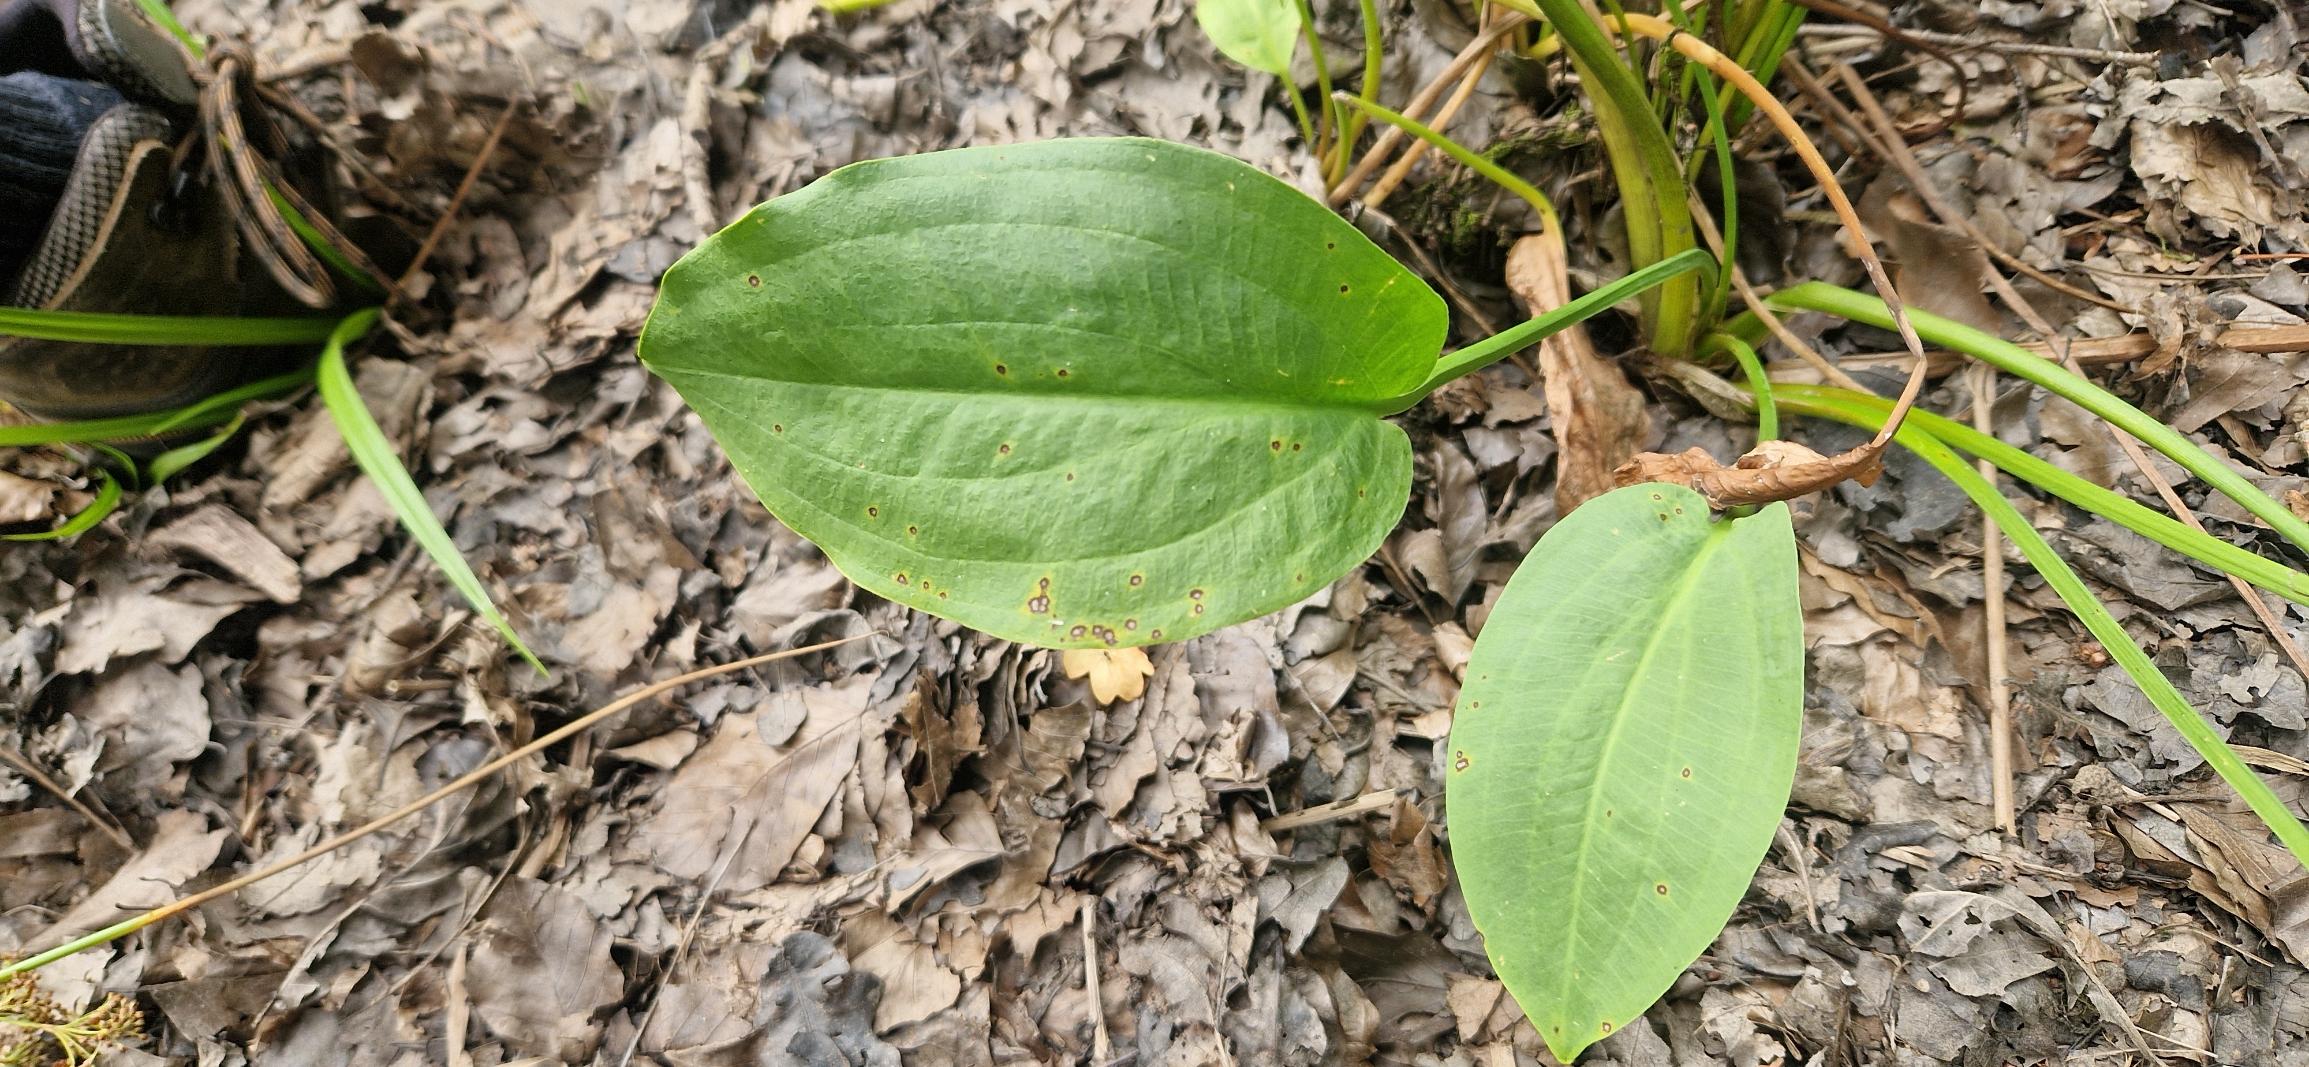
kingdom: Plantae
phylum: Tracheophyta
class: Liliopsida
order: Alismatales
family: Alismataceae
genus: Alisma
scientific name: Alisma plantago-aquatica
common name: Vejbred-skeblad
